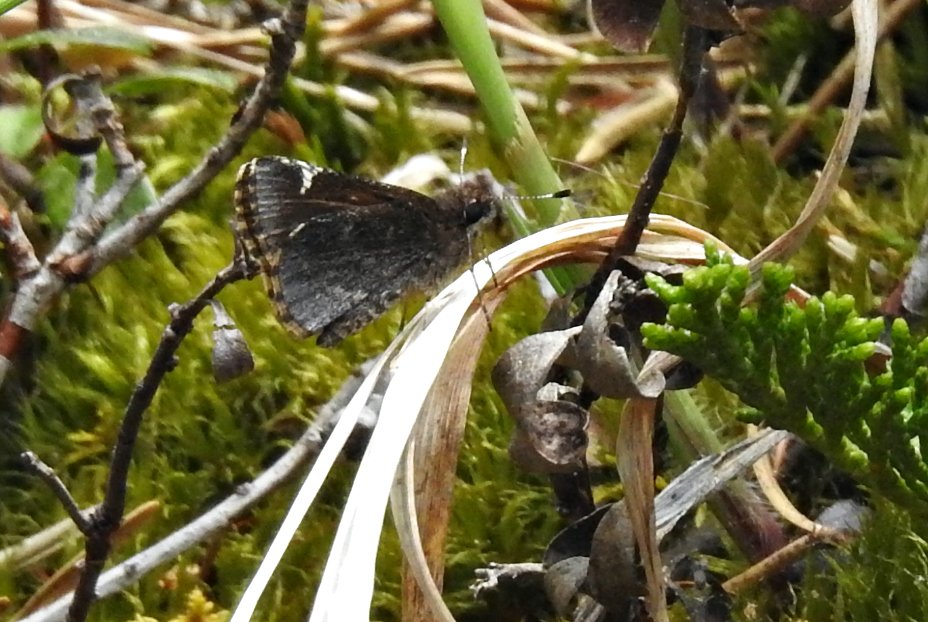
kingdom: Animalia
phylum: Arthropoda
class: Insecta
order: Lepidoptera
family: Hesperiidae
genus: Mastor
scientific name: Mastor vialis
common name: Common Roadside-Skipper
